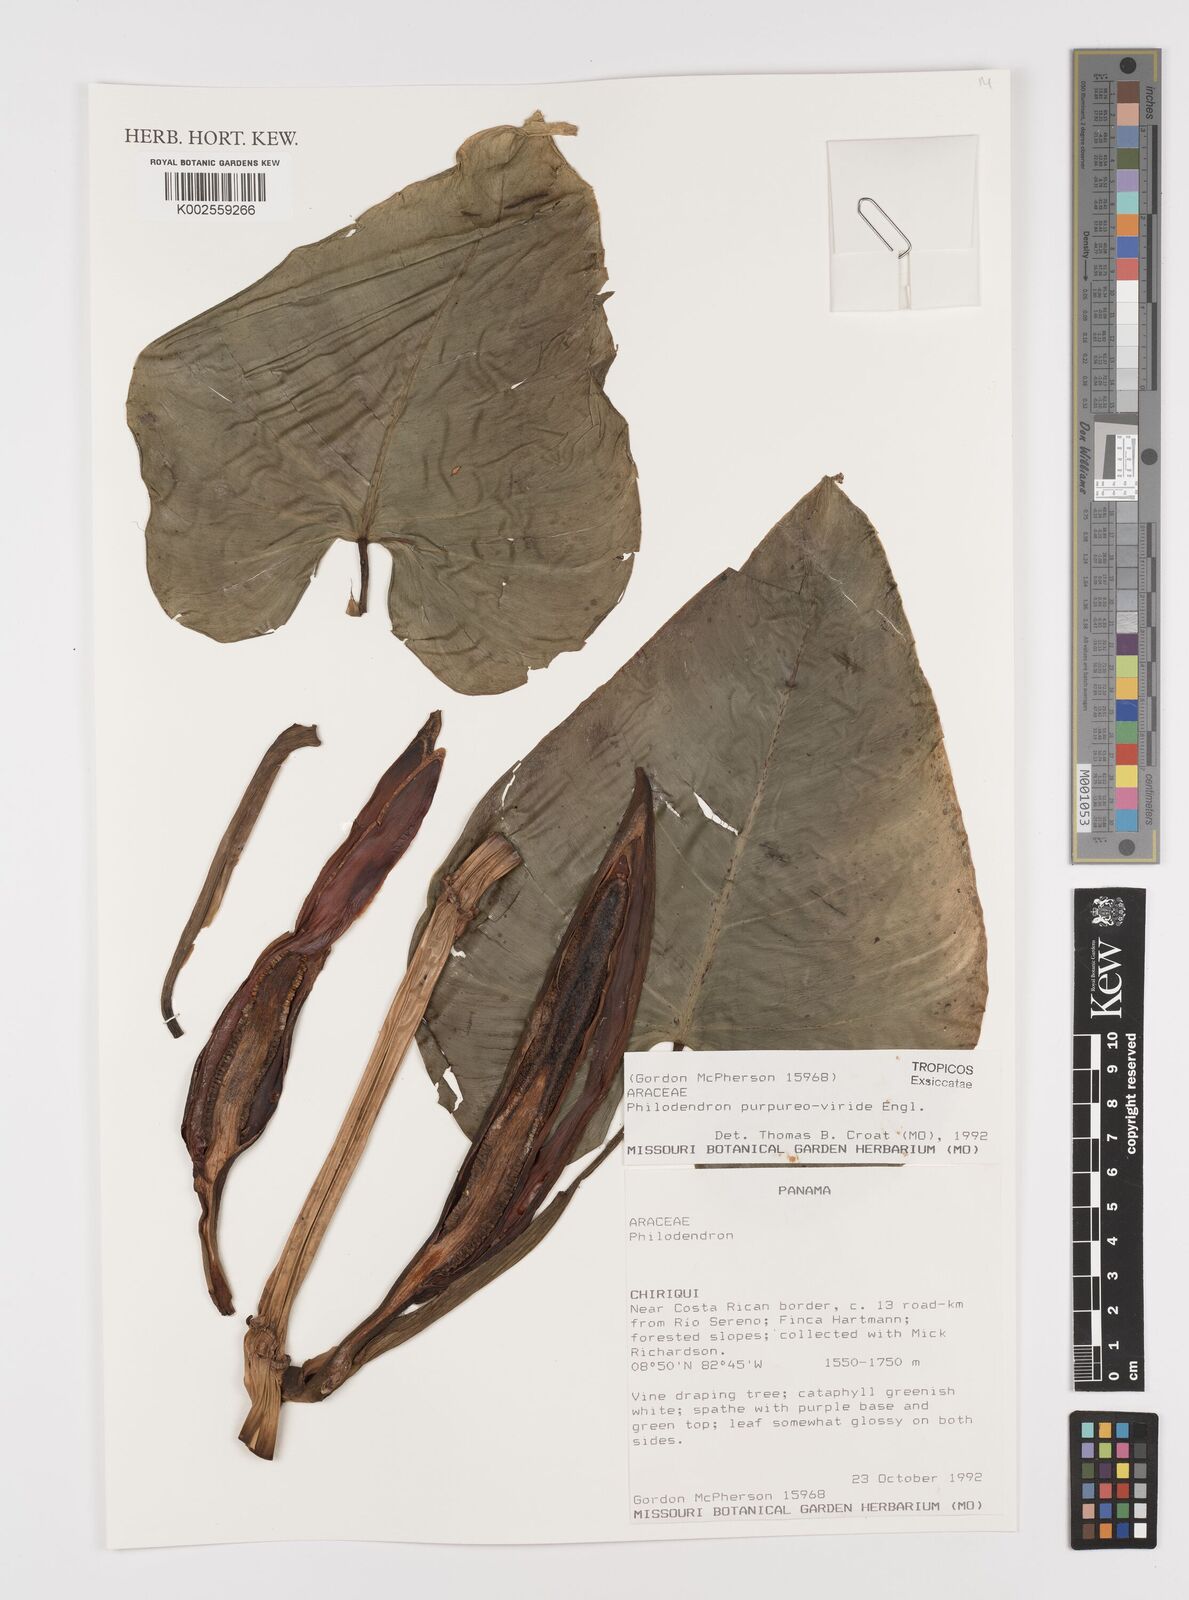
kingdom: Plantae
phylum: Tracheophyta
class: Liliopsida
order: Alismatales
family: Araceae
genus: Philodendron
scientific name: Philodendron purpureoviride
